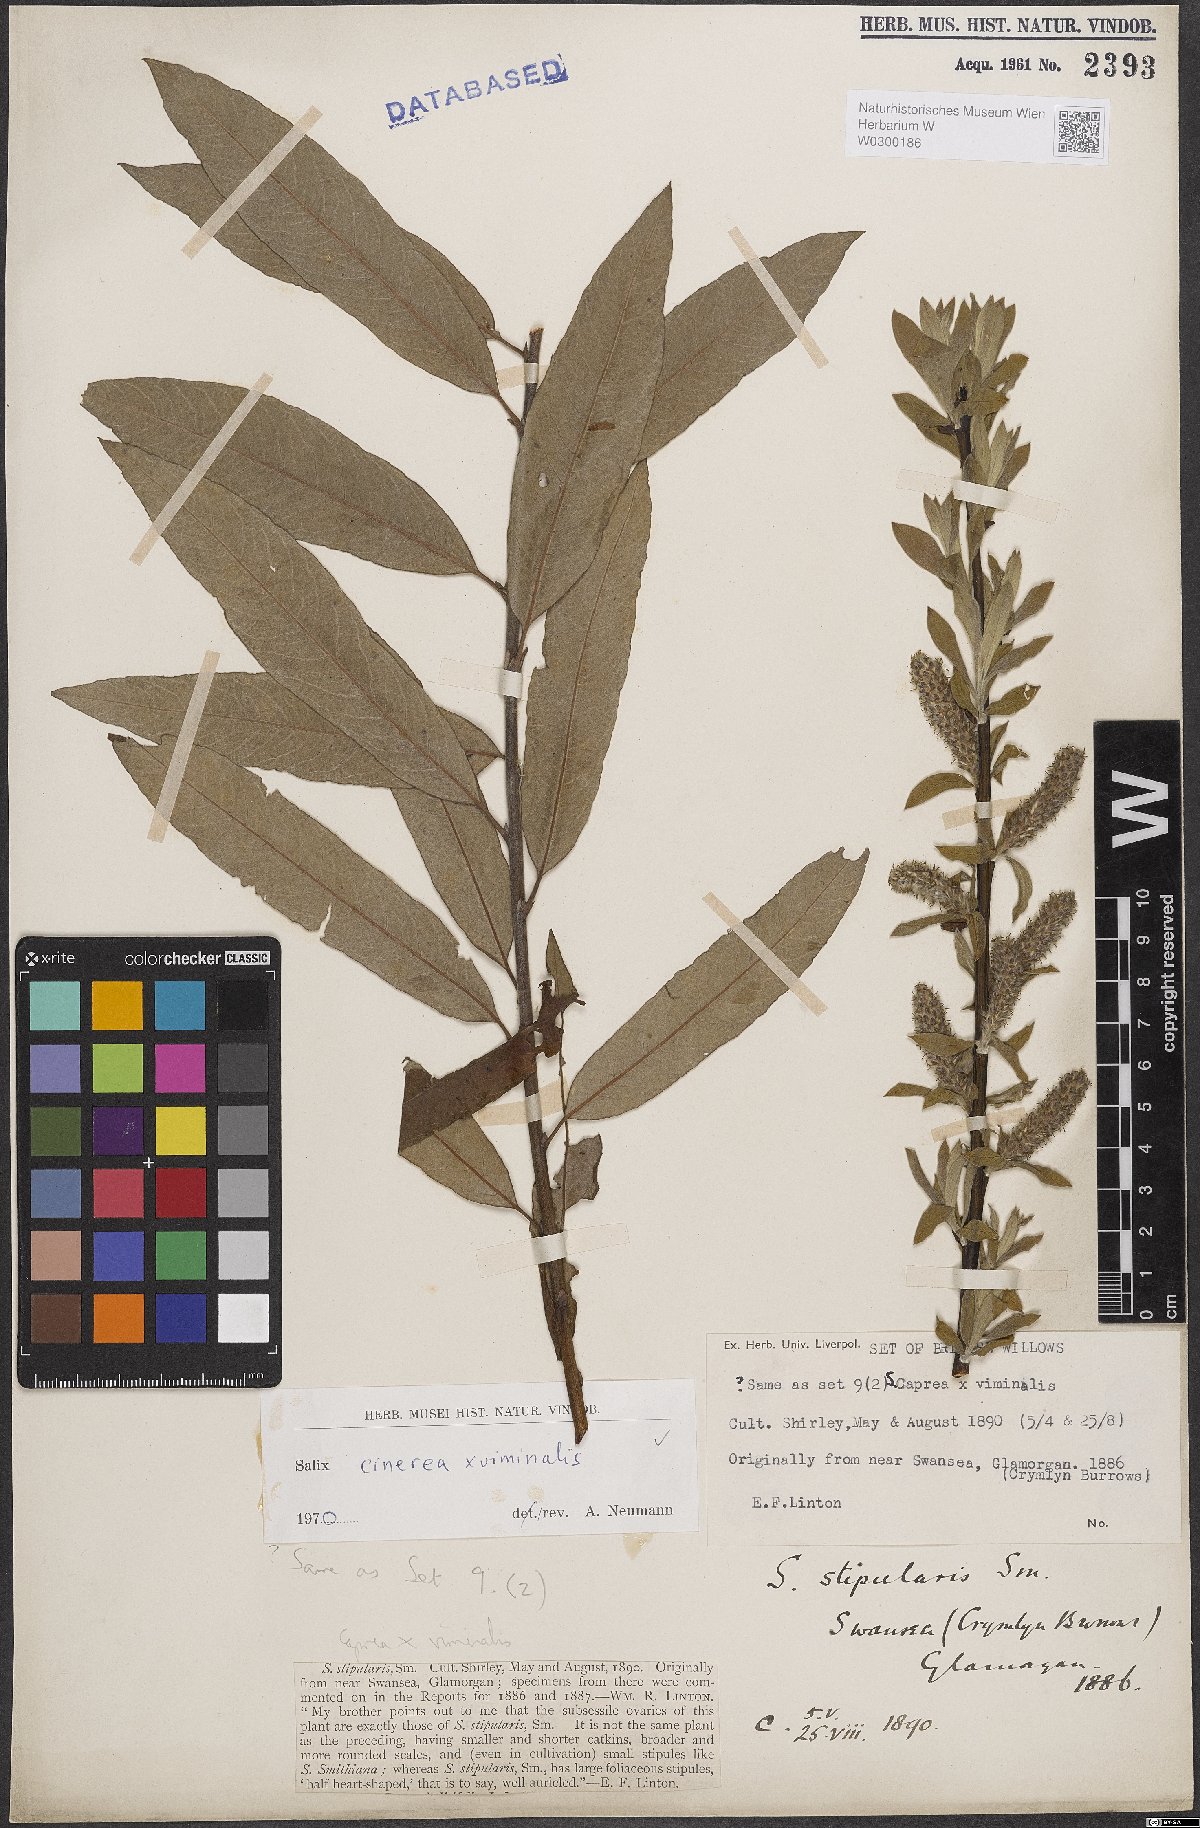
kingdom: Plantae
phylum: Tracheophyta
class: Magnoliopsida
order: Malpighiales
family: Salicaceae
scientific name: Salicaceae
